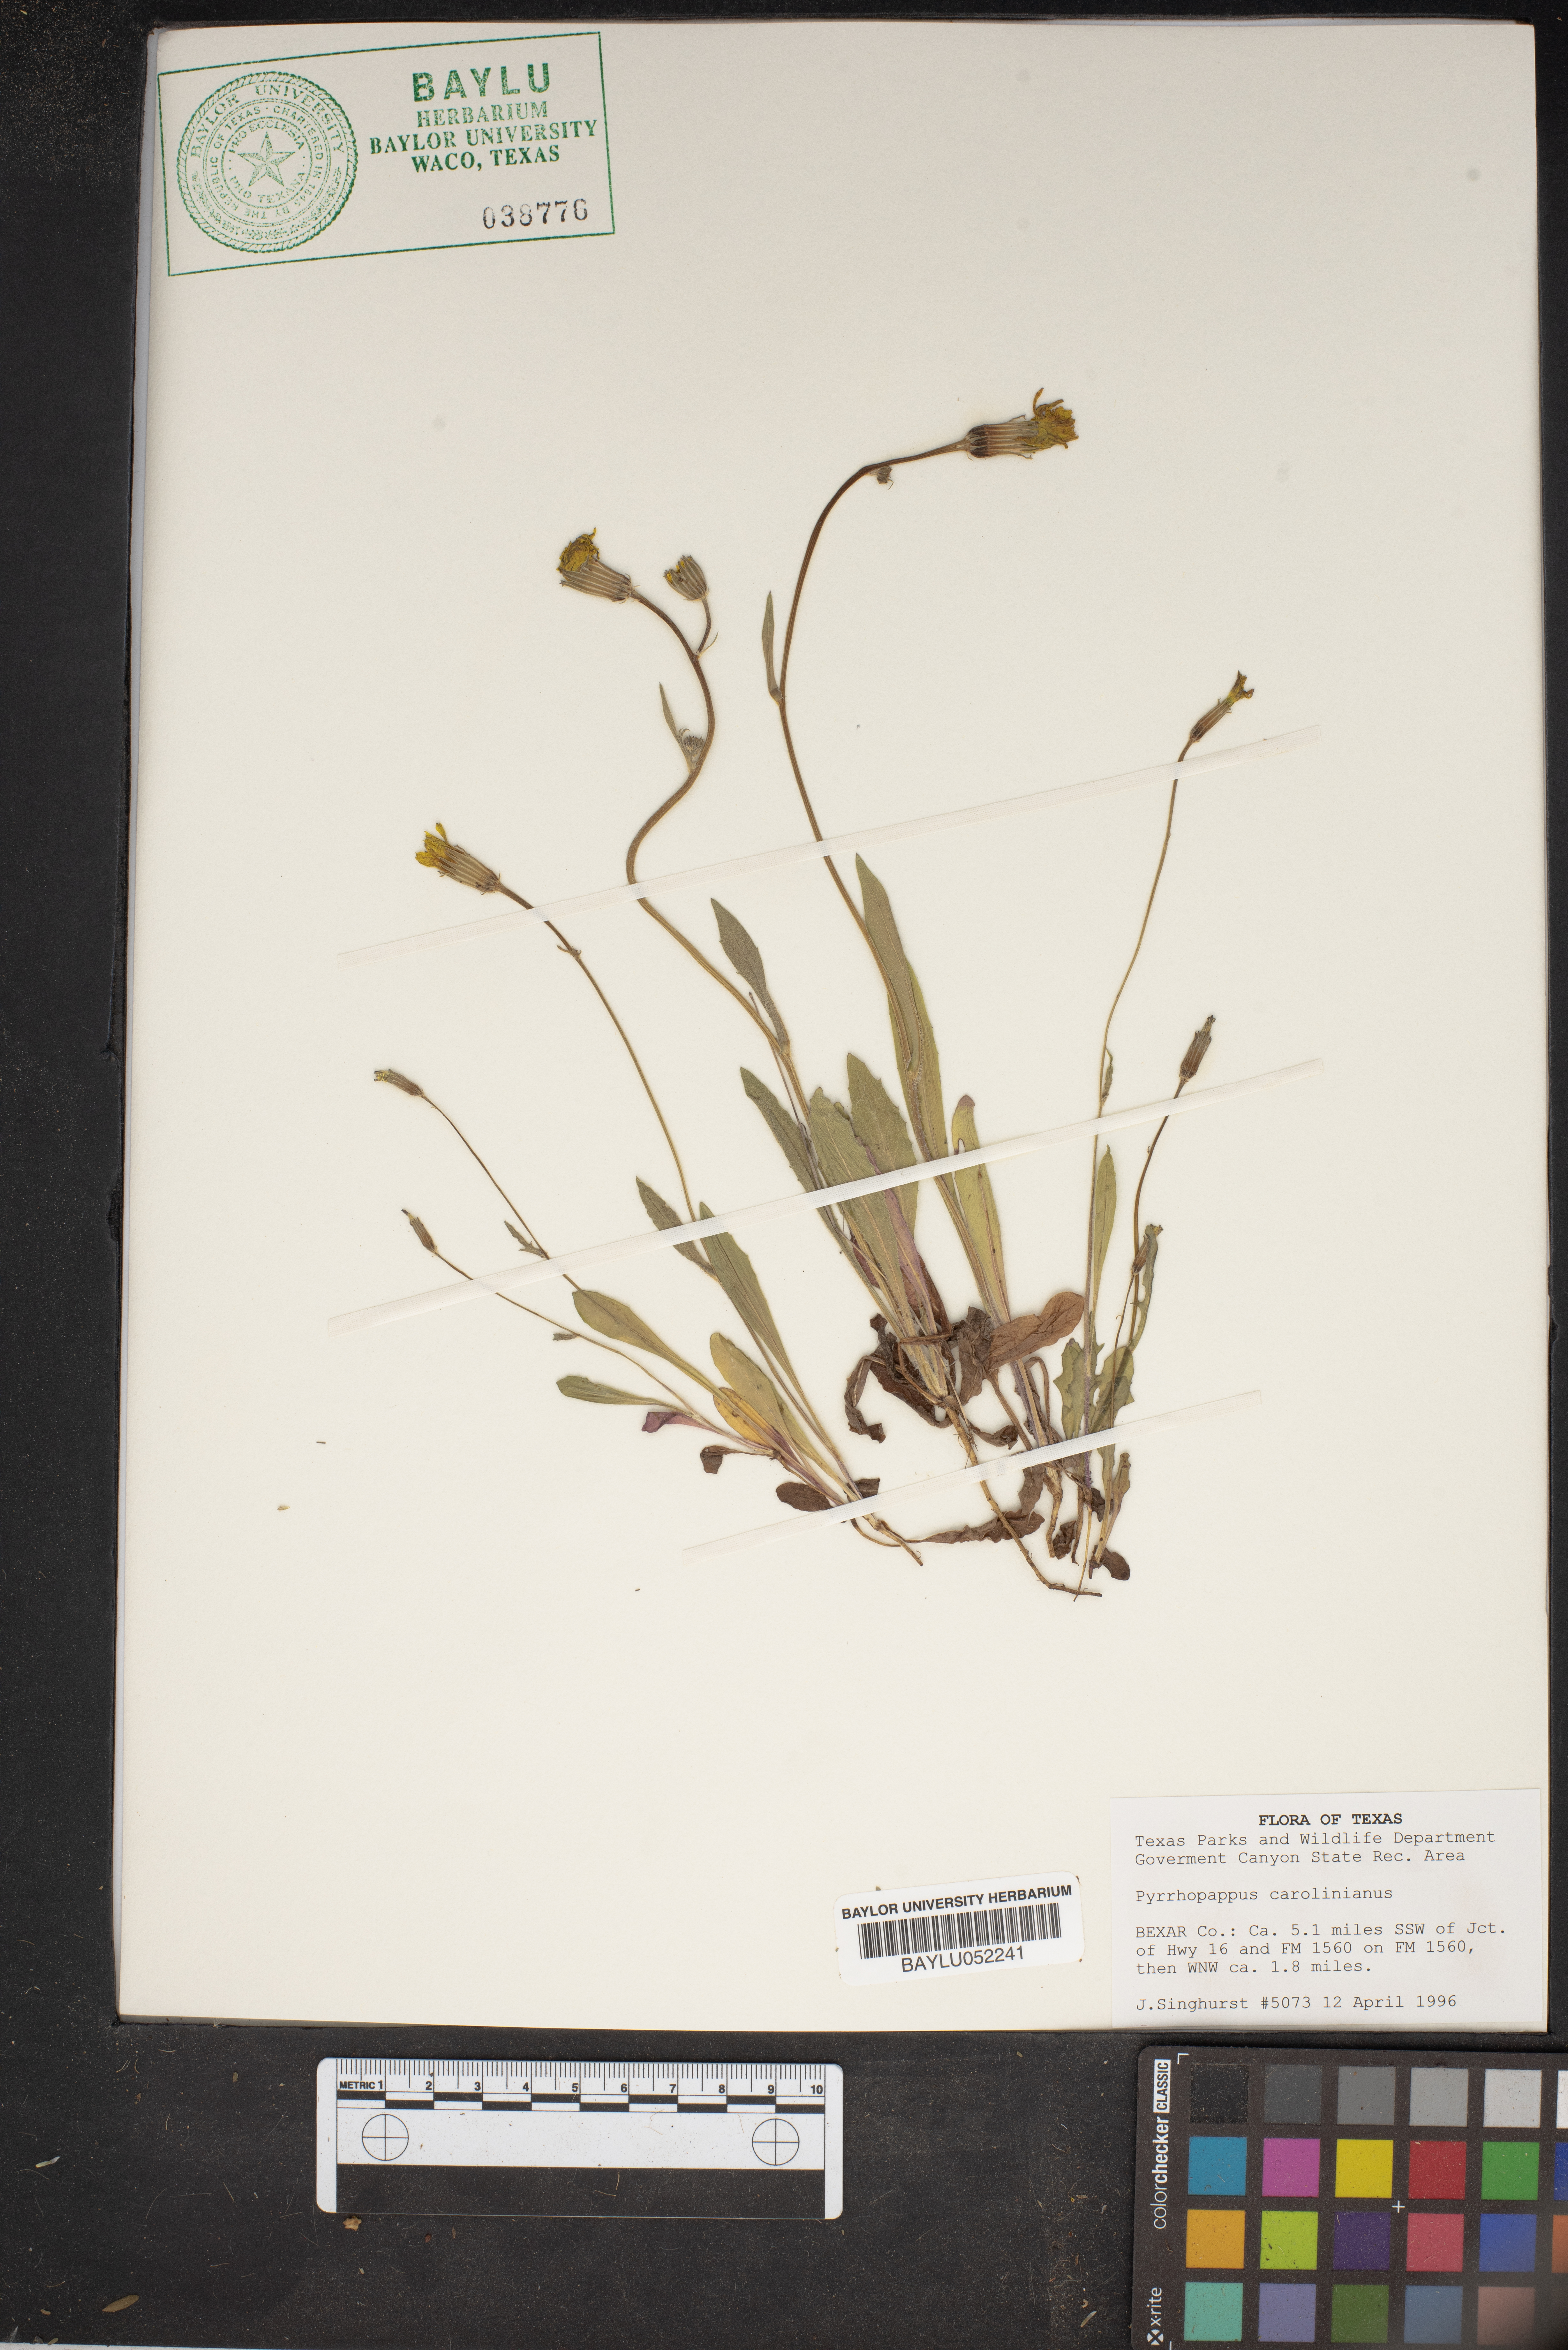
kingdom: Plantae
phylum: Tracheophyta
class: Magnoliopsida
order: Asterales
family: Asteraceae
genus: Pyrrhopappus
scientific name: Pyrrhopappus carolinianus
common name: Carolina desert-chicory
